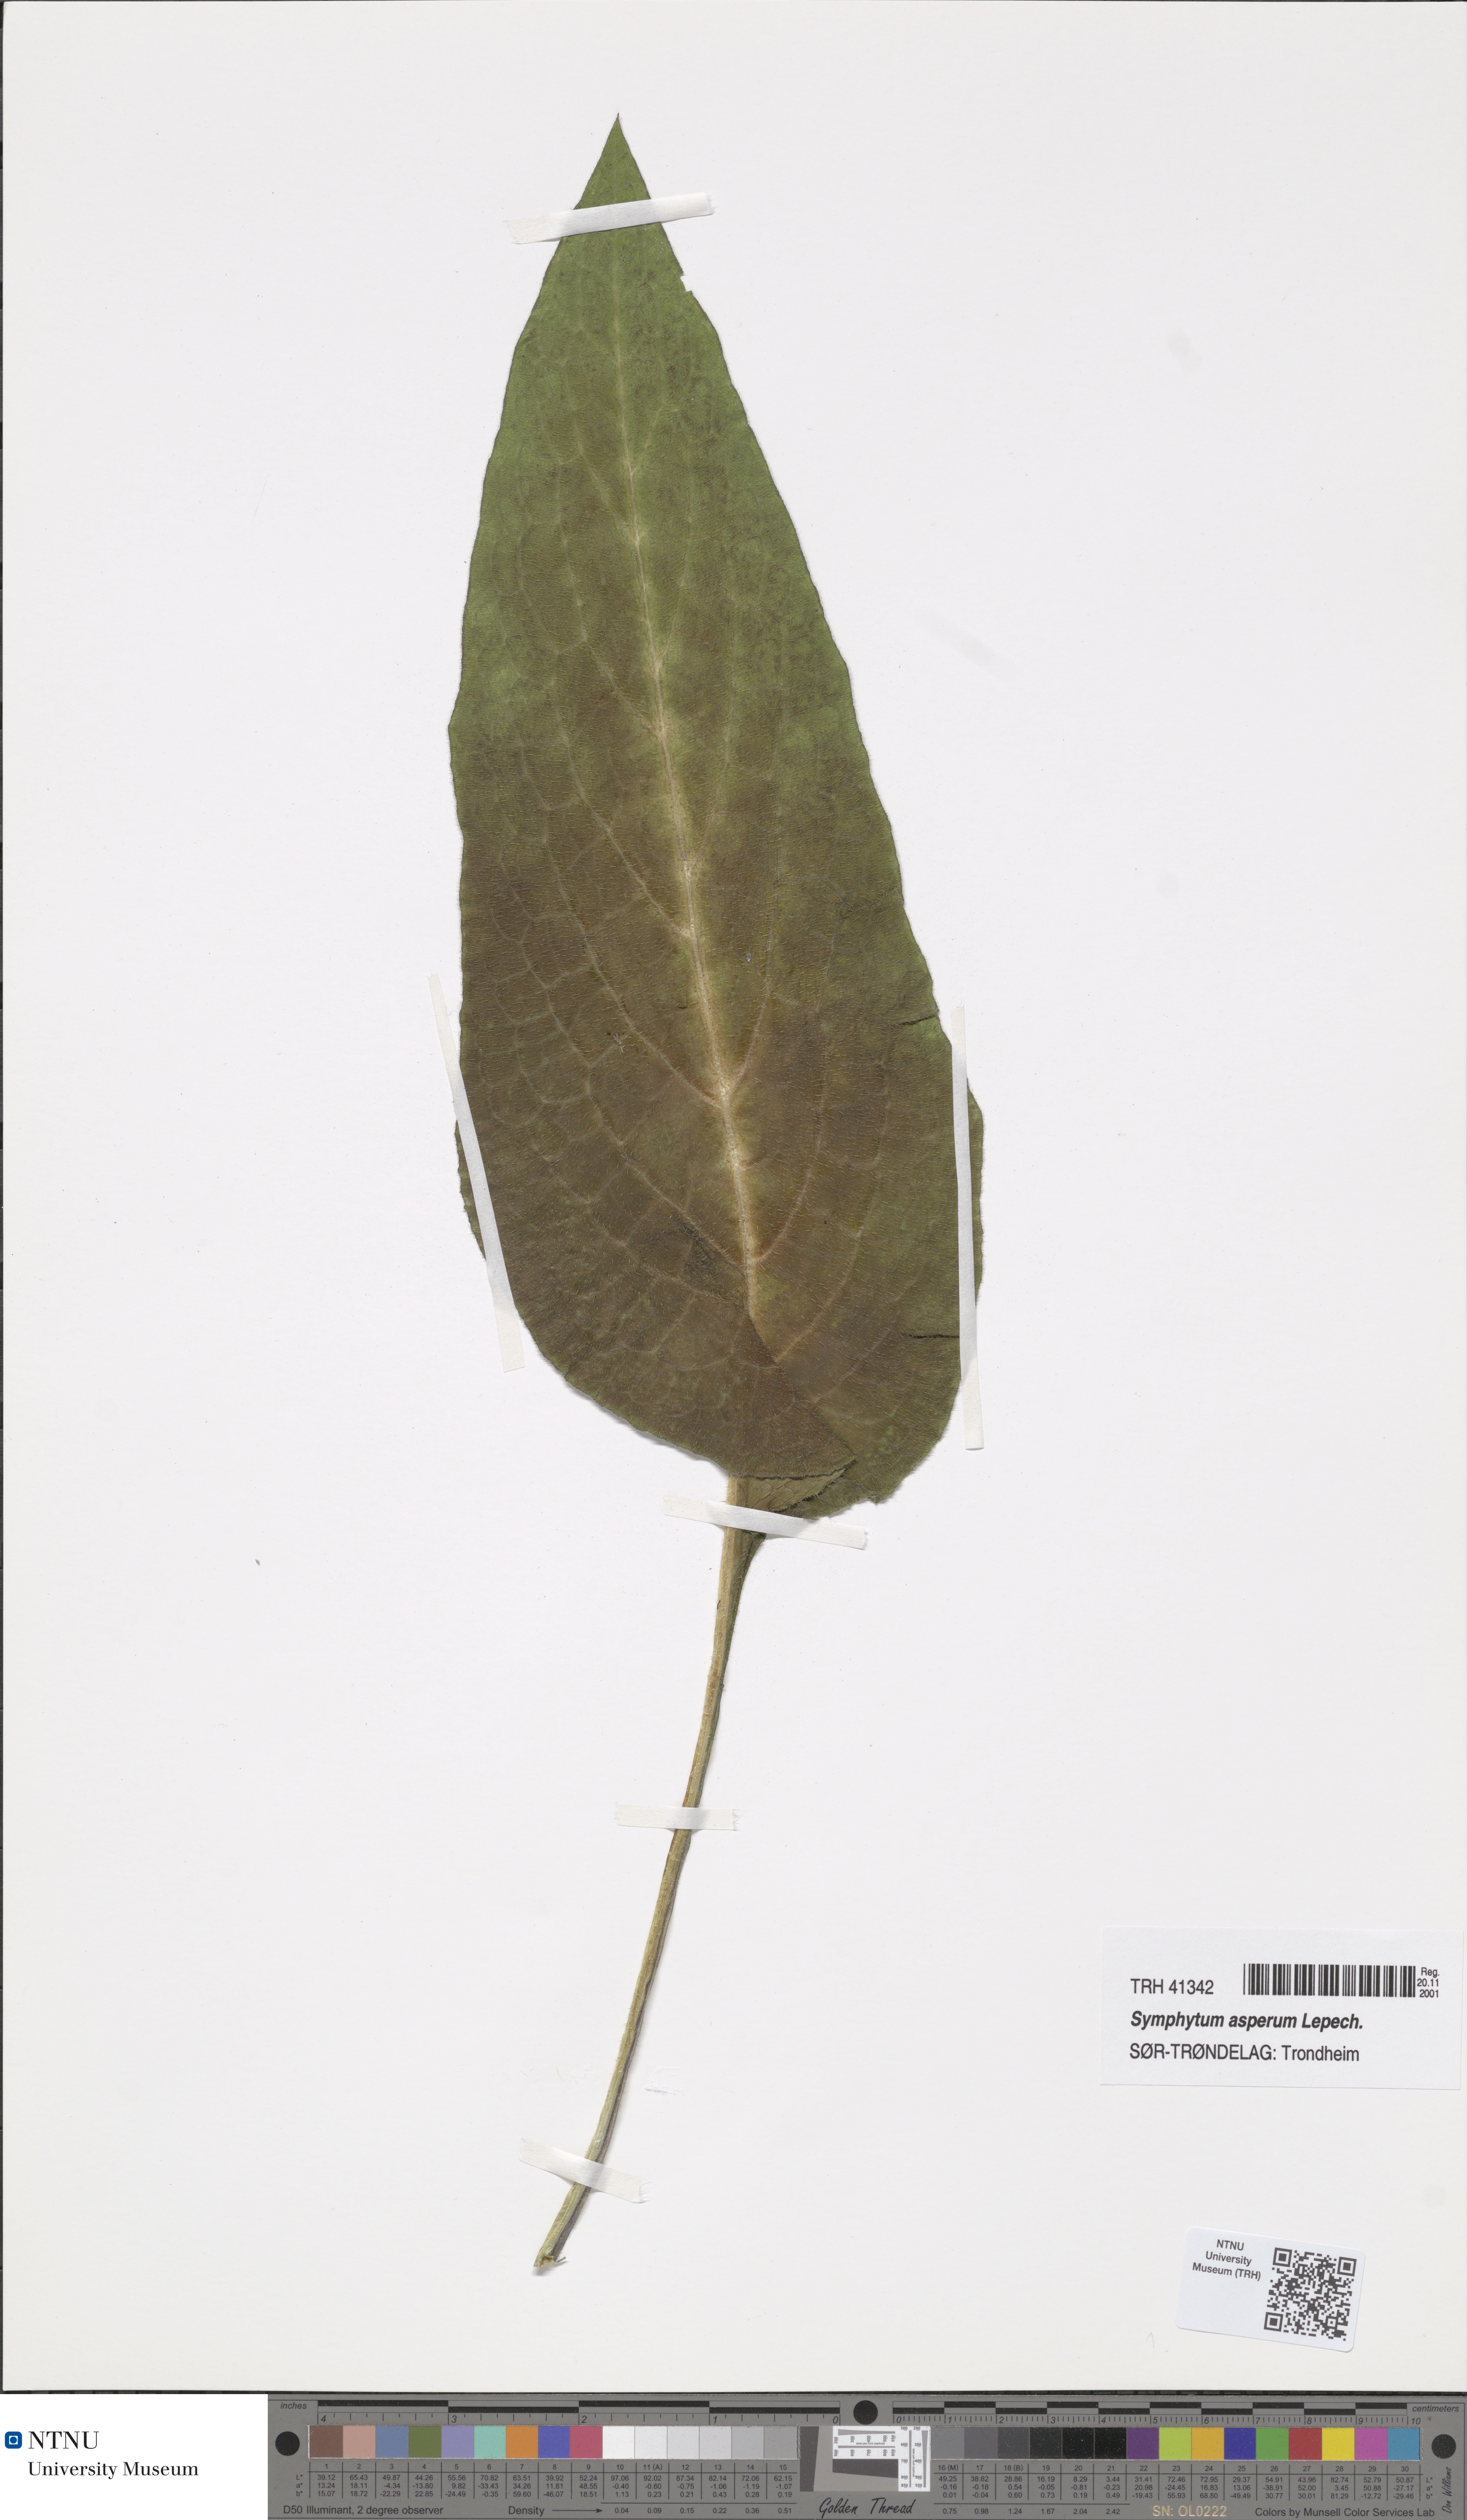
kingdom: Plantae
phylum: Tracheophyta
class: Magnoliopsida
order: Boraginales
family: Boraginaceae
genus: Symphytum
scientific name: Symphytum asperum
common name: Prickly comfrey
